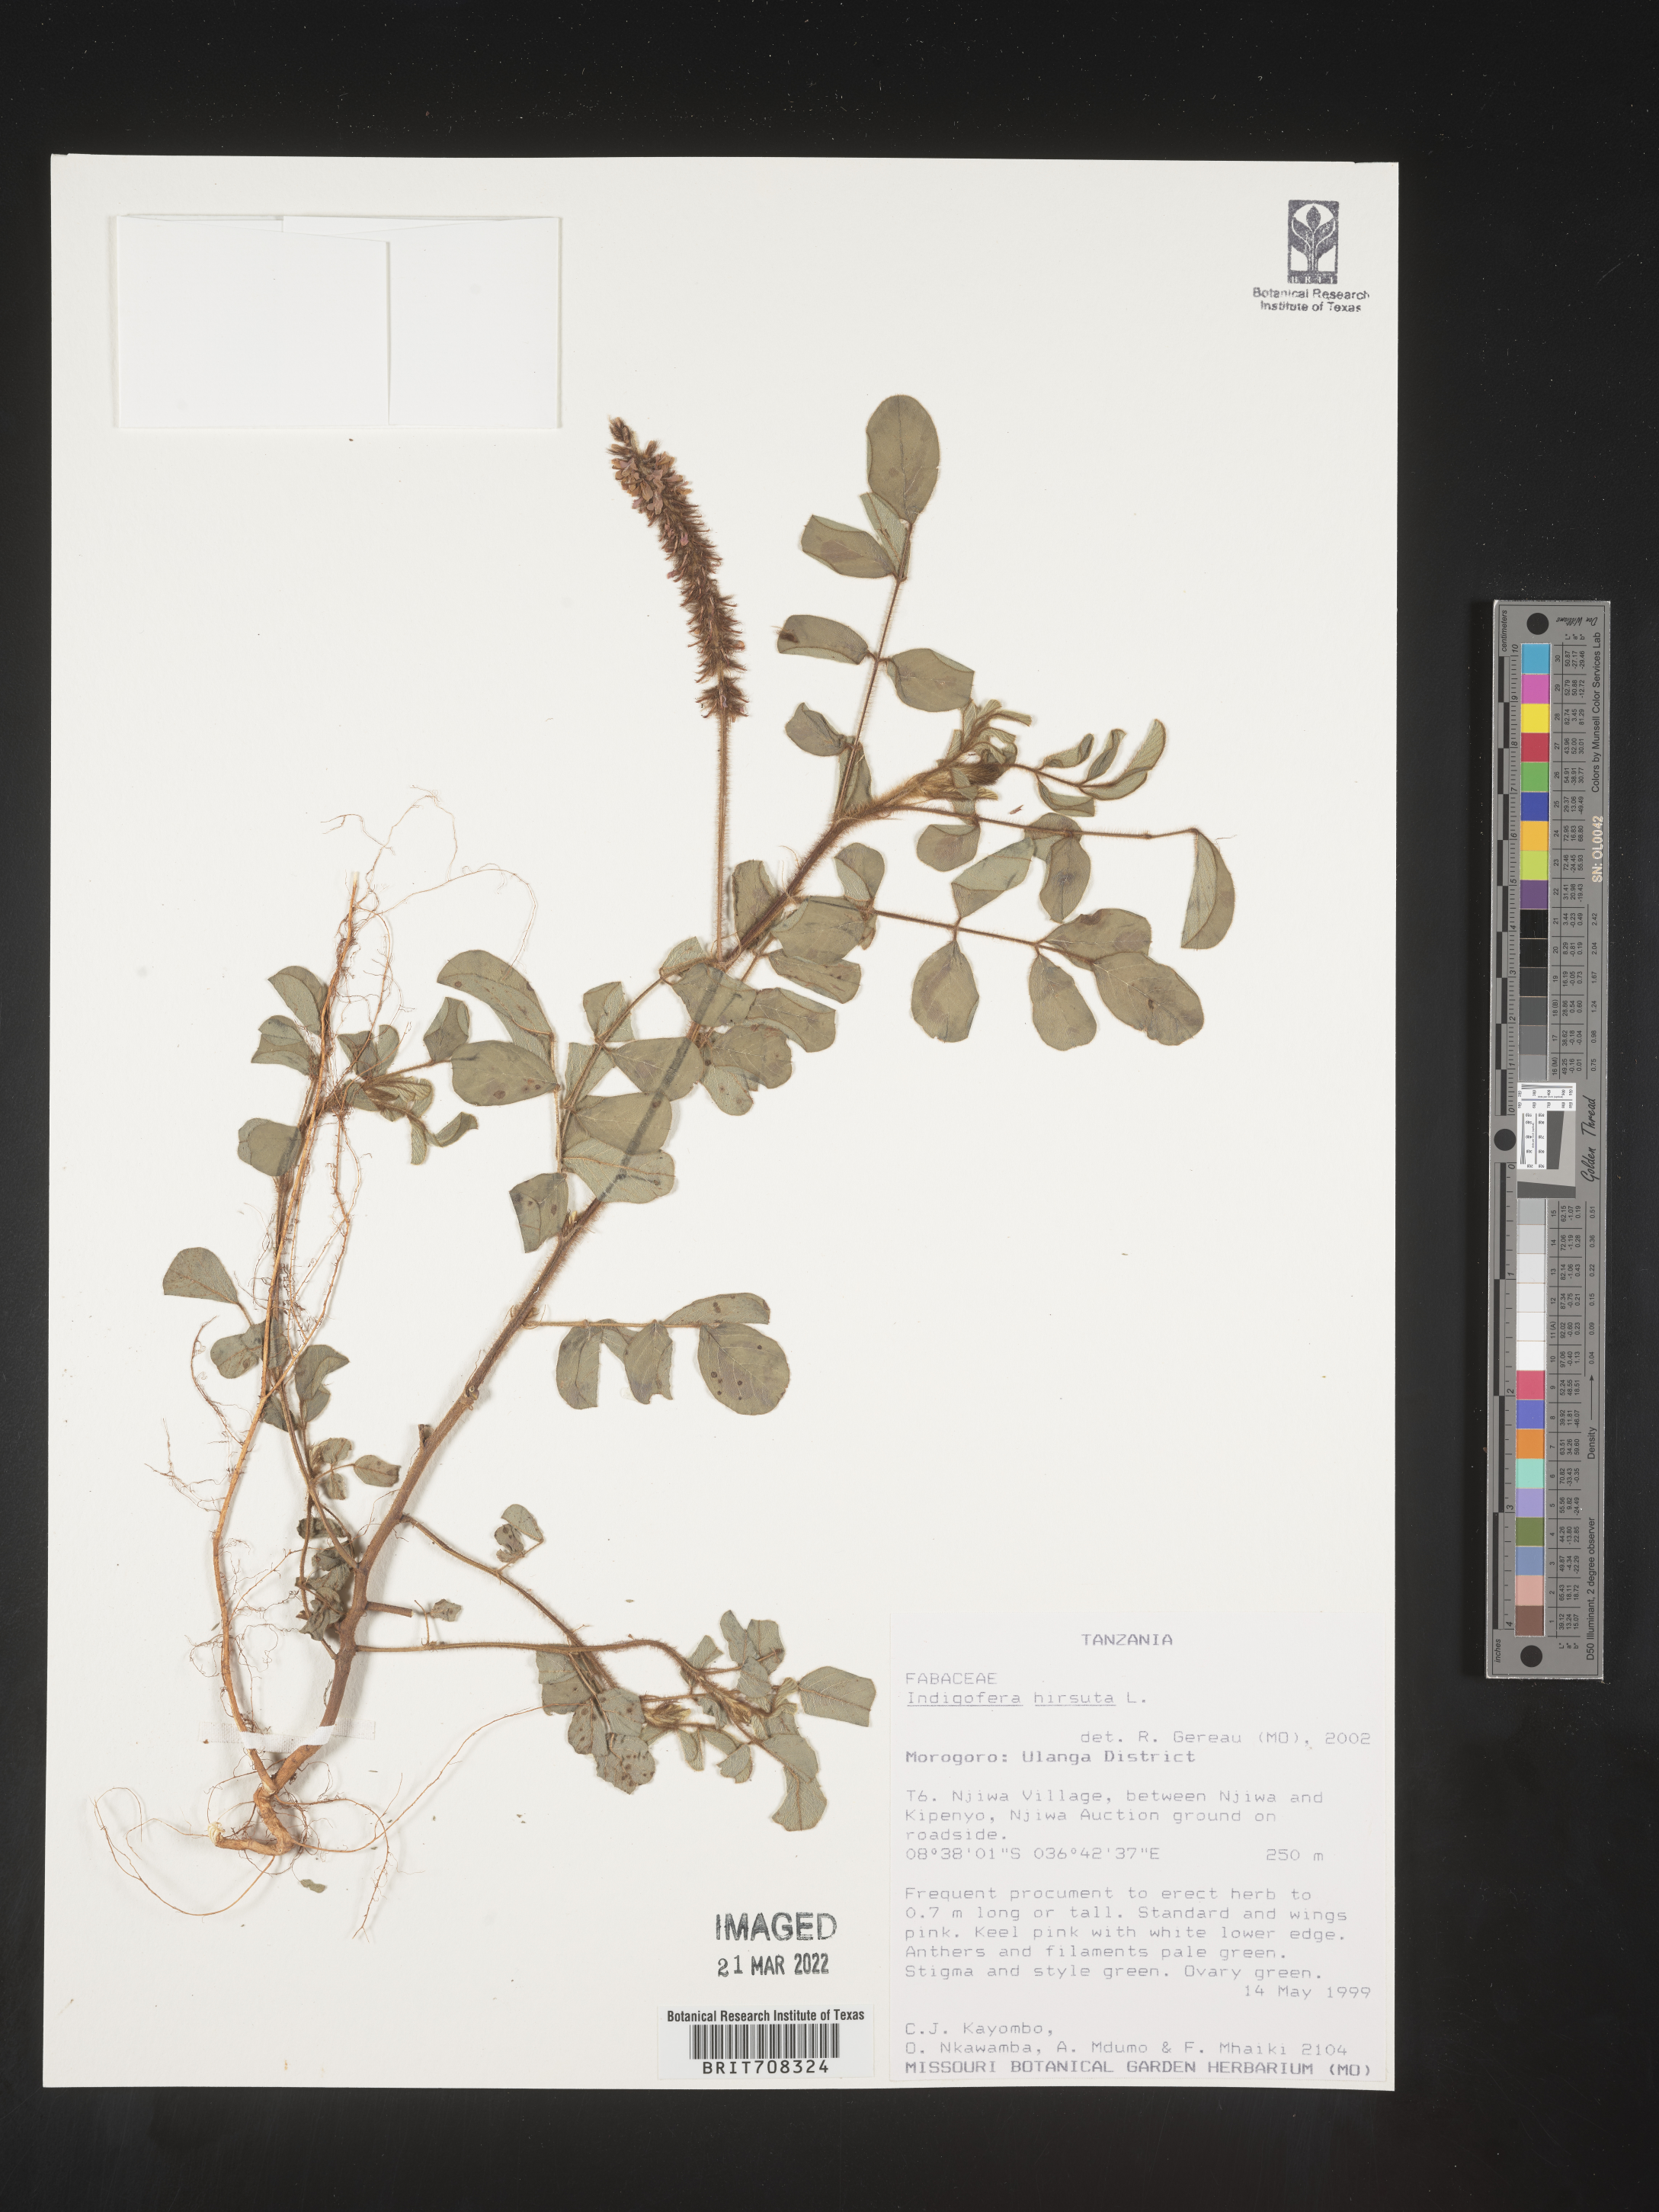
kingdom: Plantae
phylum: Tracheophyta
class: Magnoliopsida
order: Fabales
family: Fabaceae
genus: Indigofera
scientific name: Indigofera
